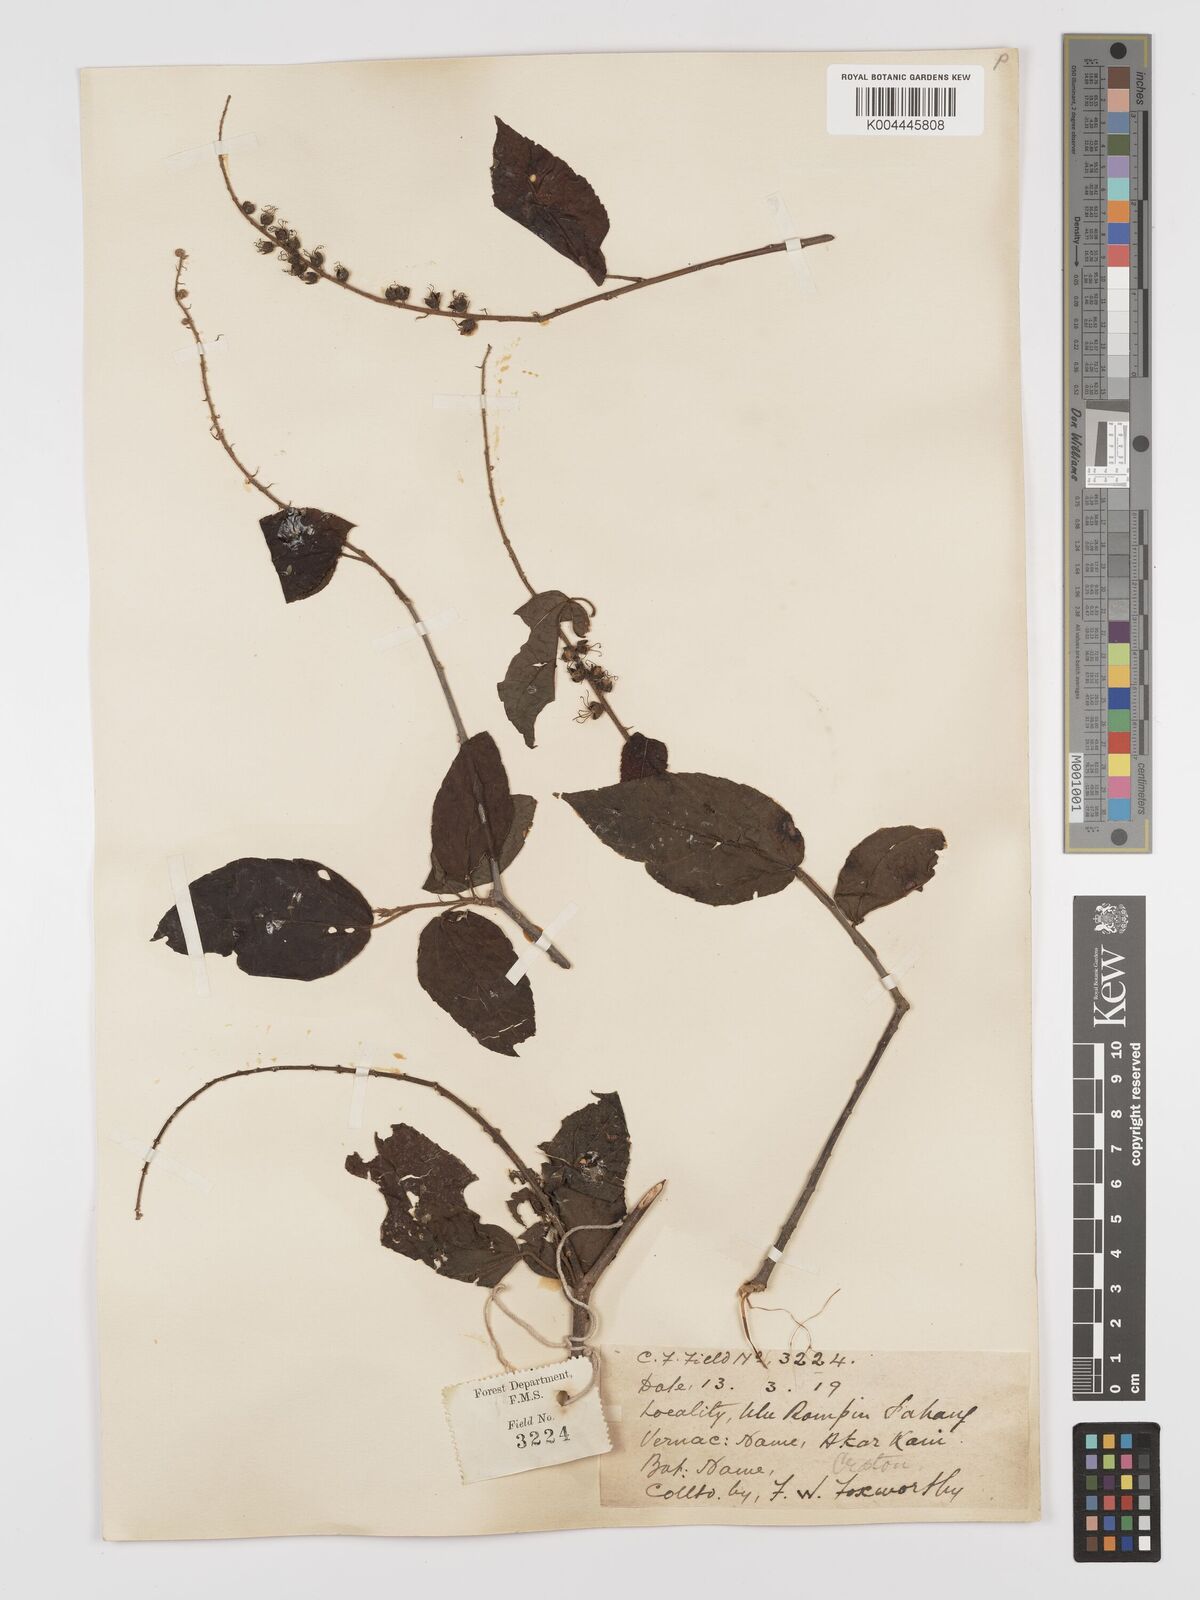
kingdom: Plantae
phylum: Tracheophyta
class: Magnoliopsida
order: Malpighiales
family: Euphorbiaceae
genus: Croton
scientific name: Croton caudatus
